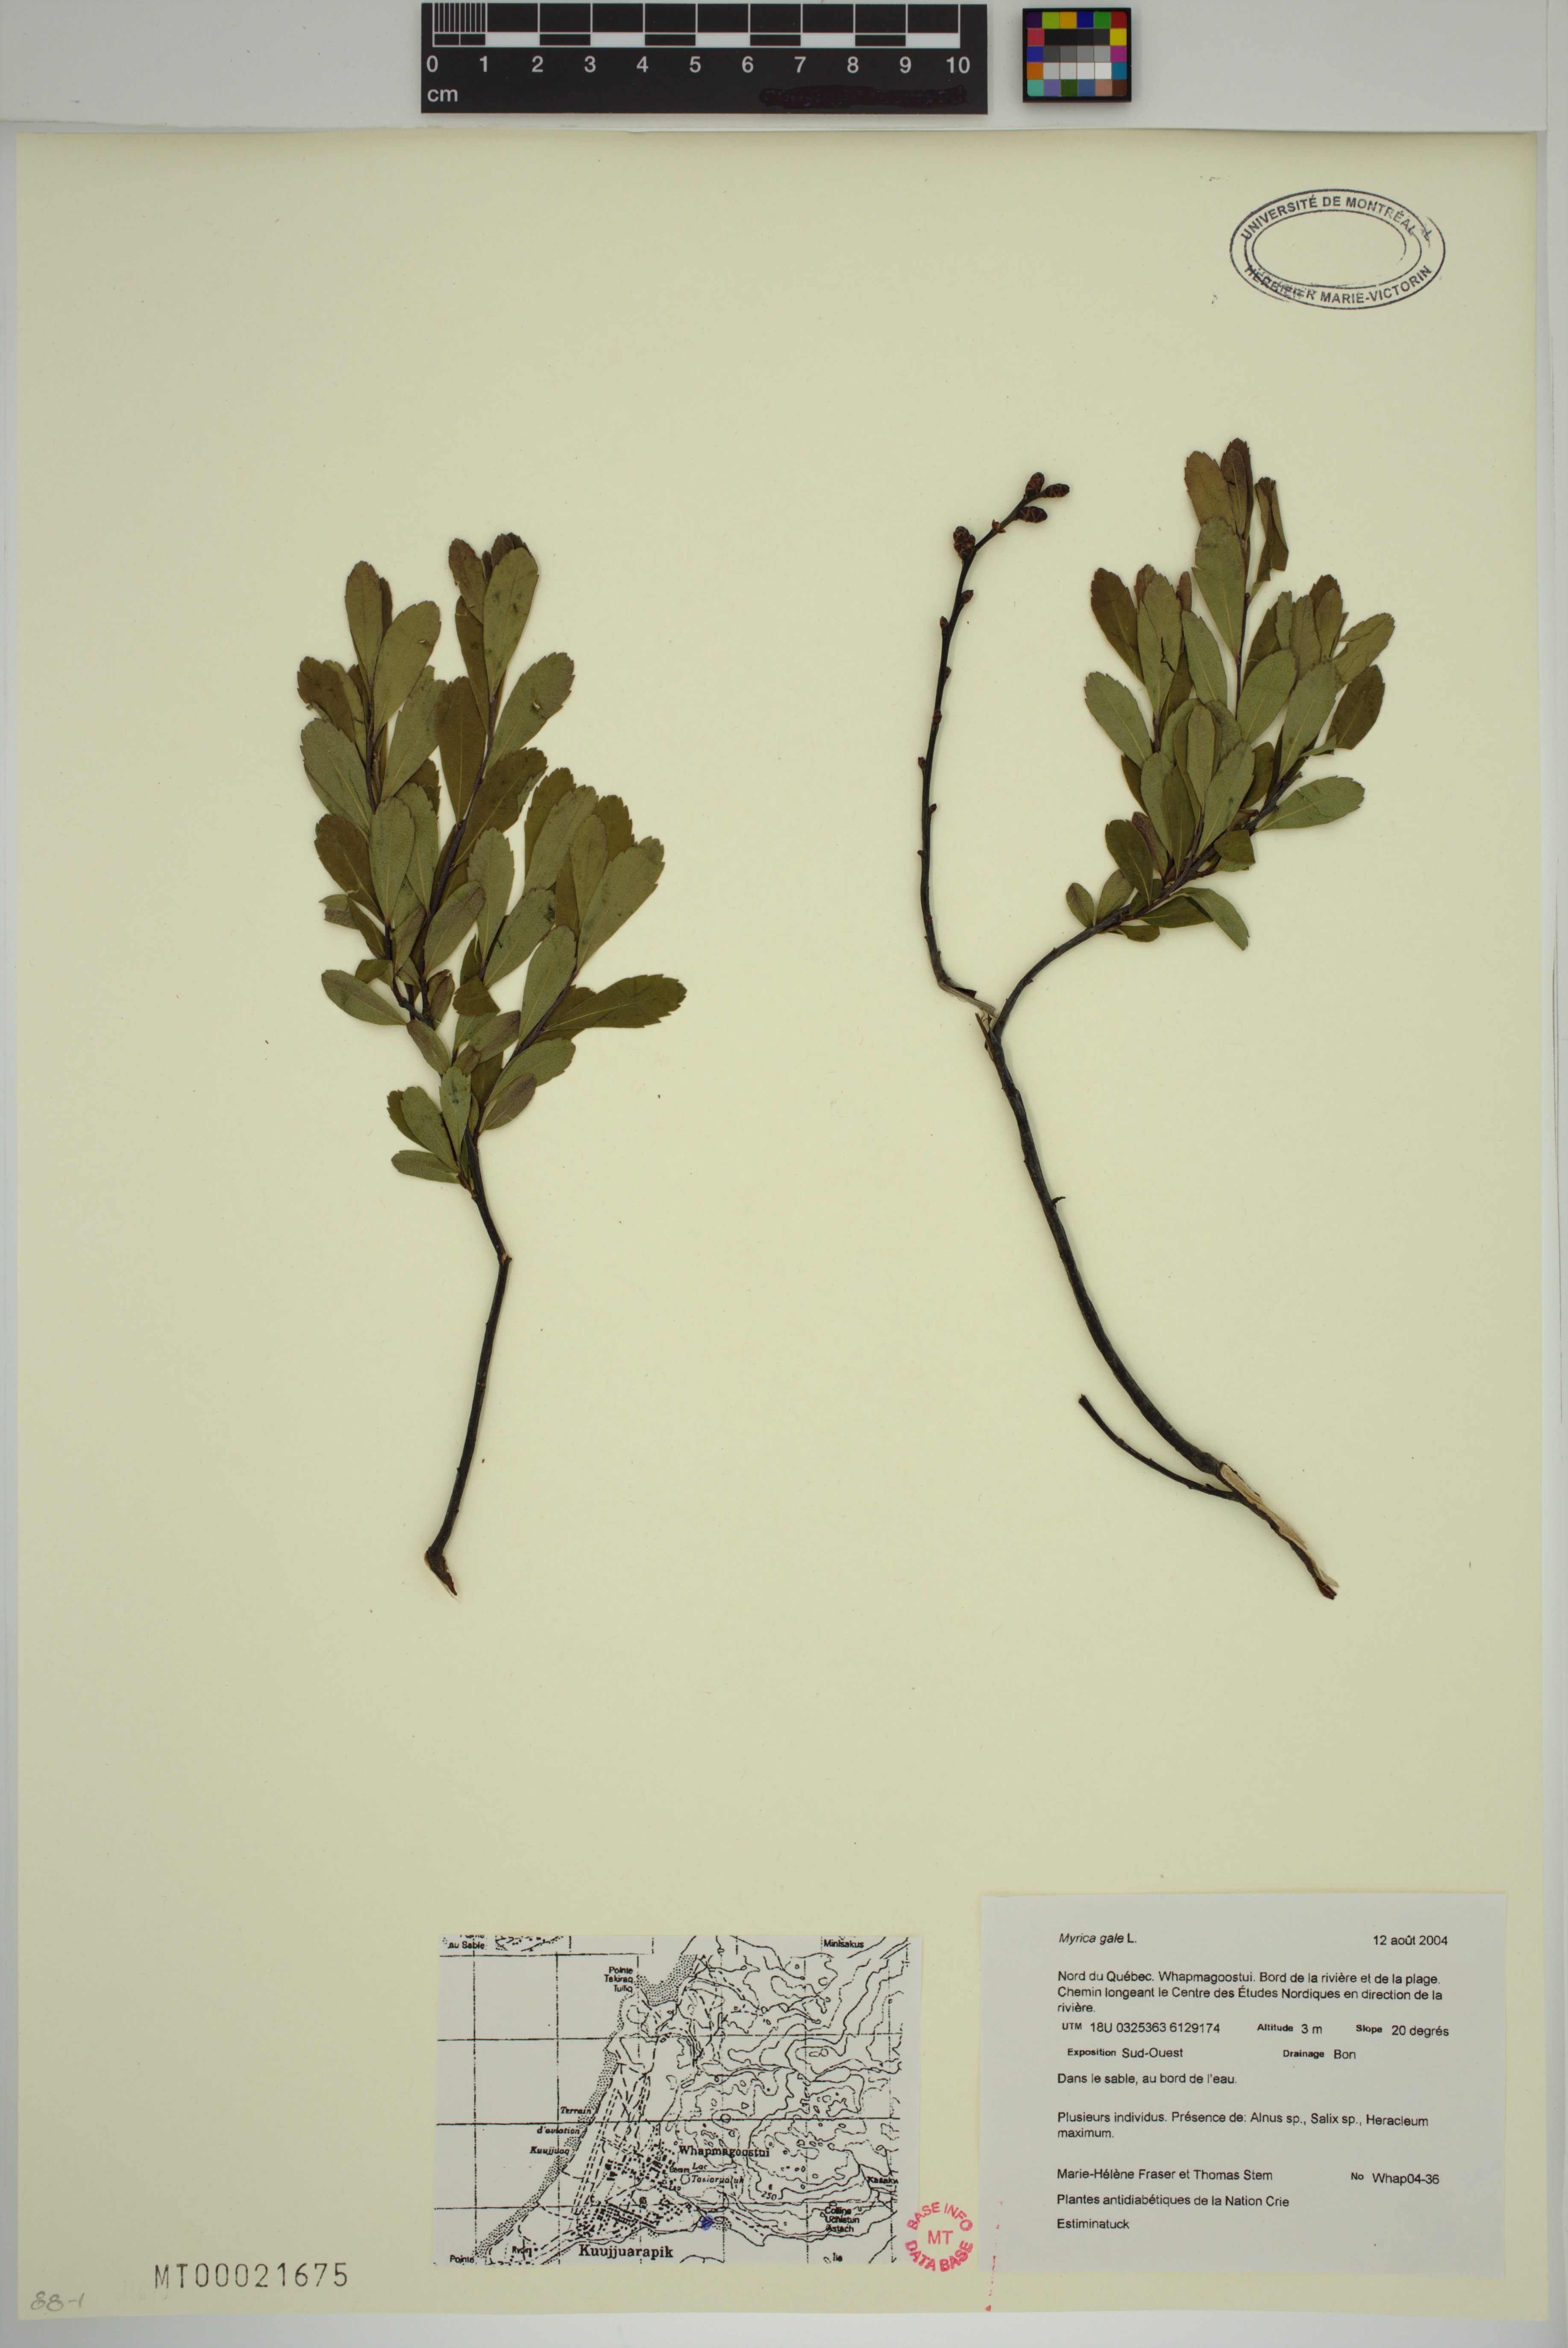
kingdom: Plantae
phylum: Tracheophyta
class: Magnoliopsida
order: Fagales
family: Myricaceae
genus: Myrica
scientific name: Myrica gale
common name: Sweet gale
